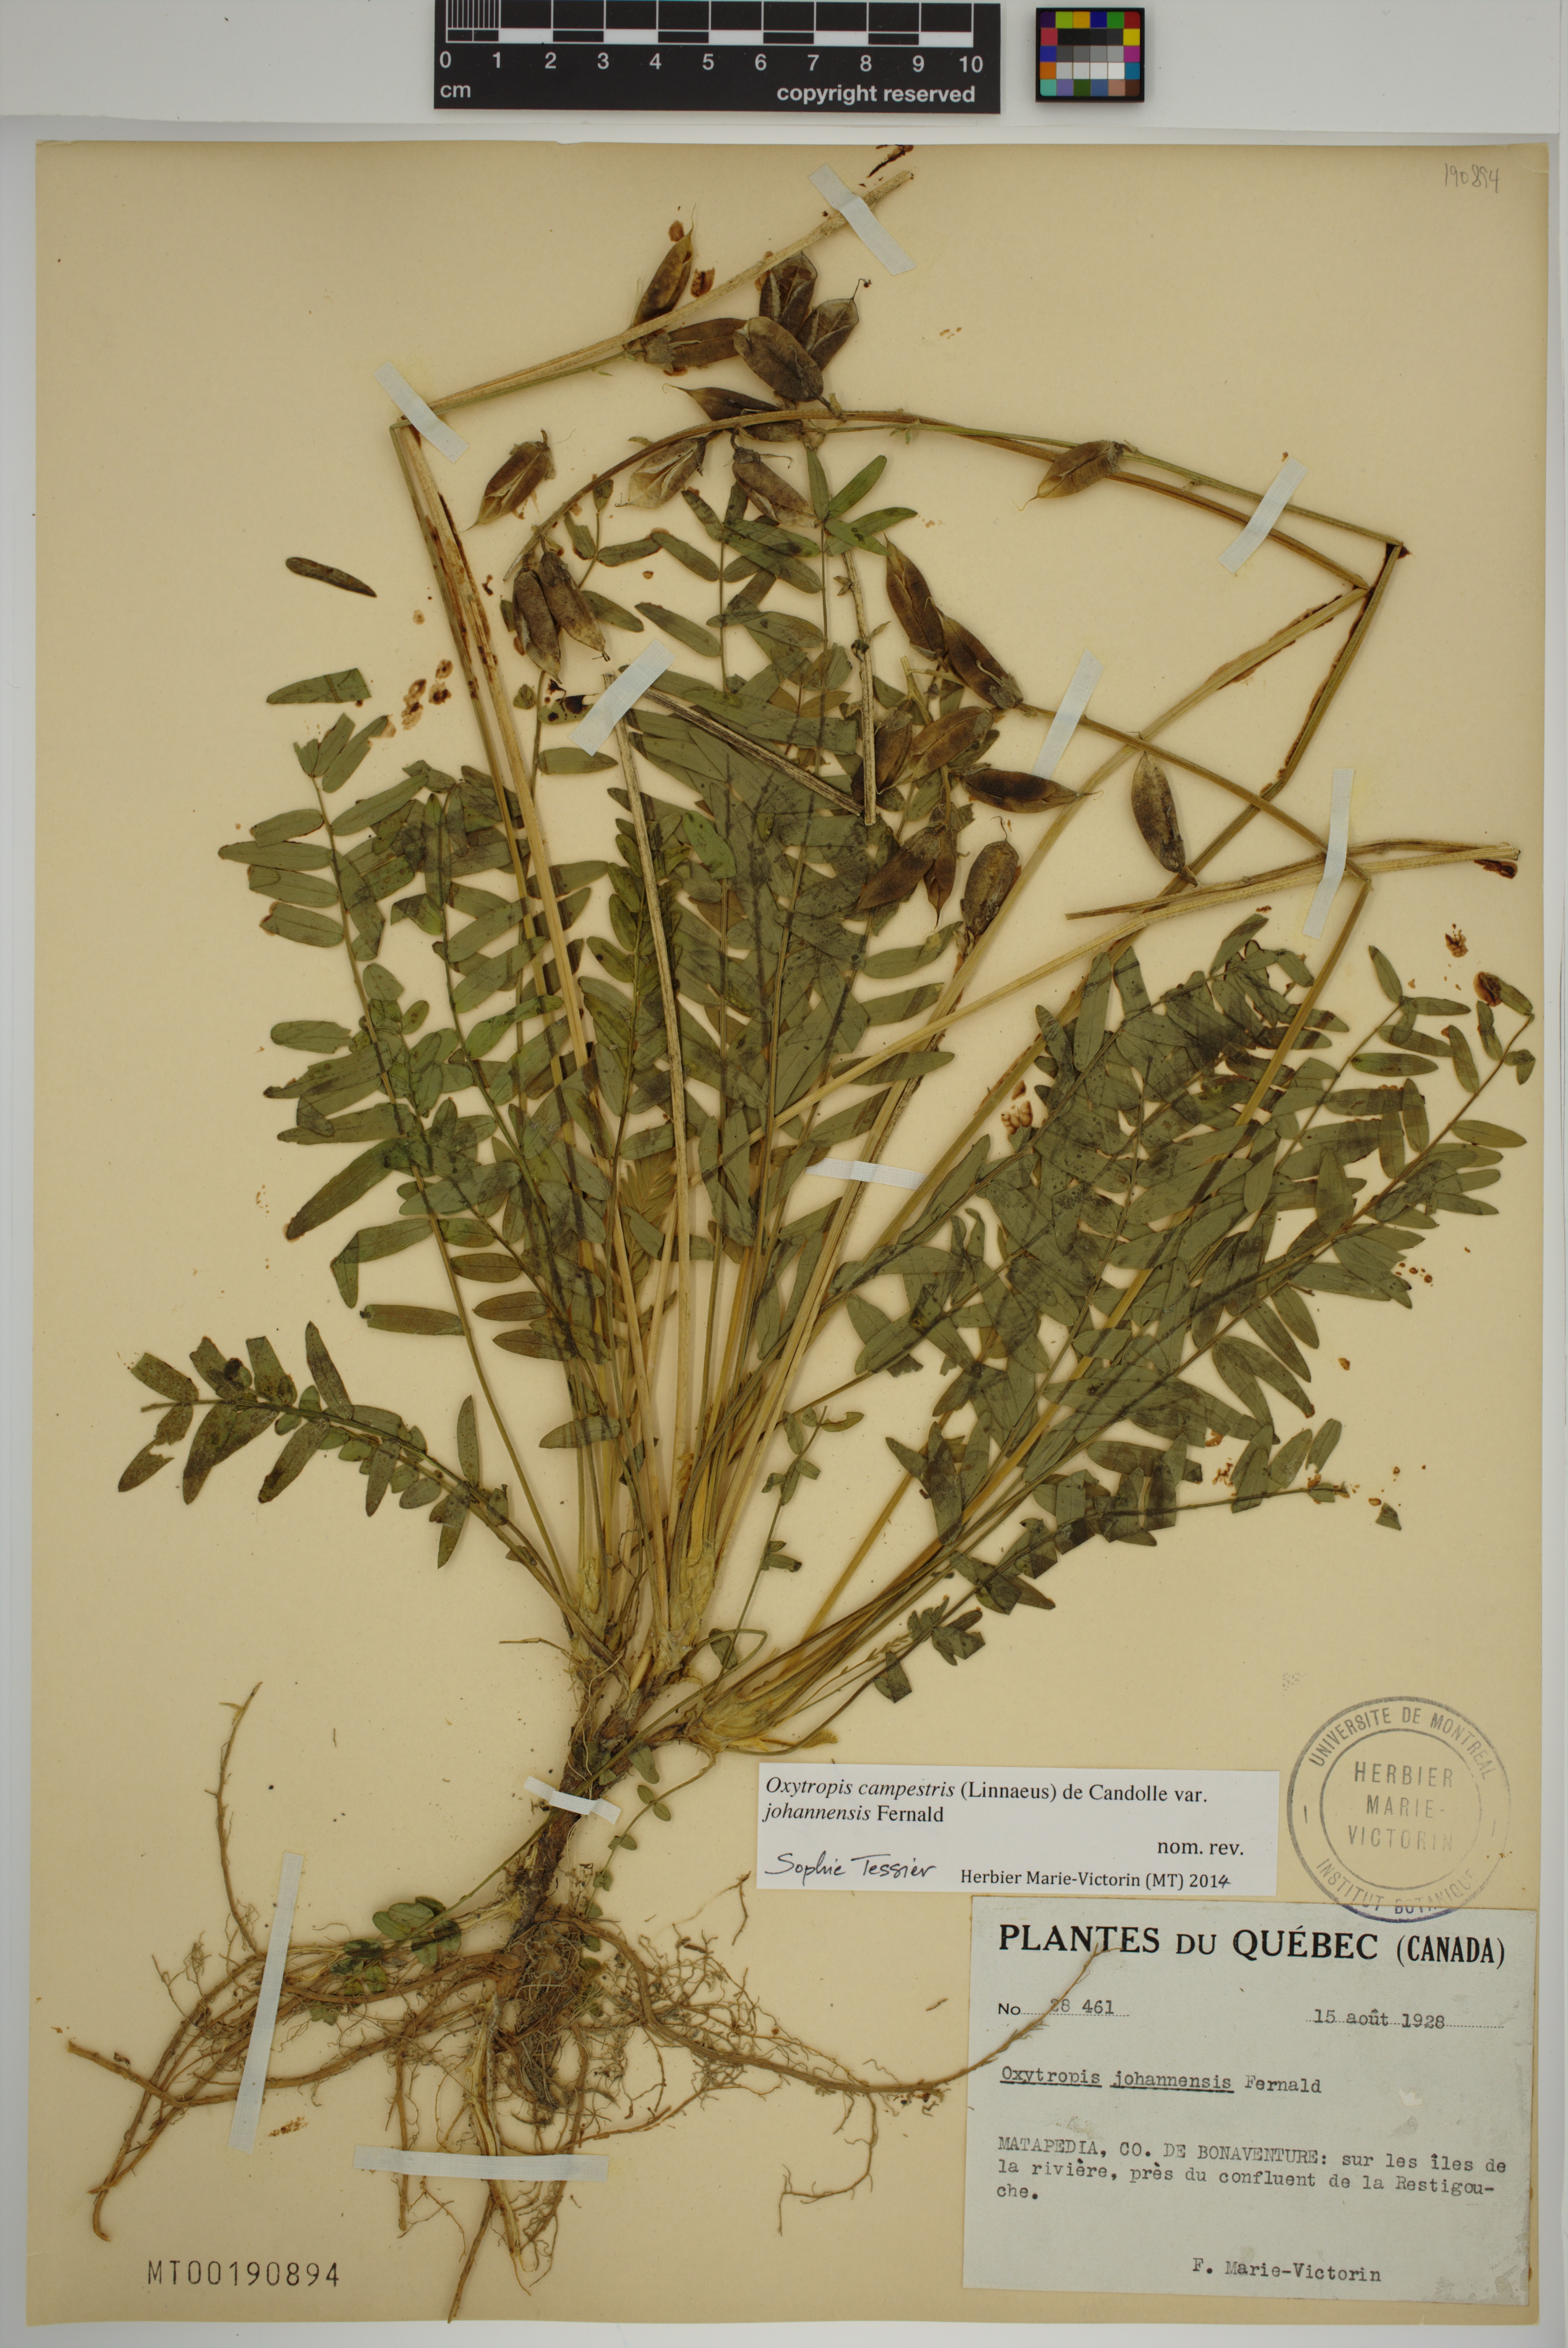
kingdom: Plantae
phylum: Tracheophyta
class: Magnoliopsida
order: Fabales
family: Fabaceae
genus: Oxytropis
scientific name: Oxytropis campestris
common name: Field locoweed
